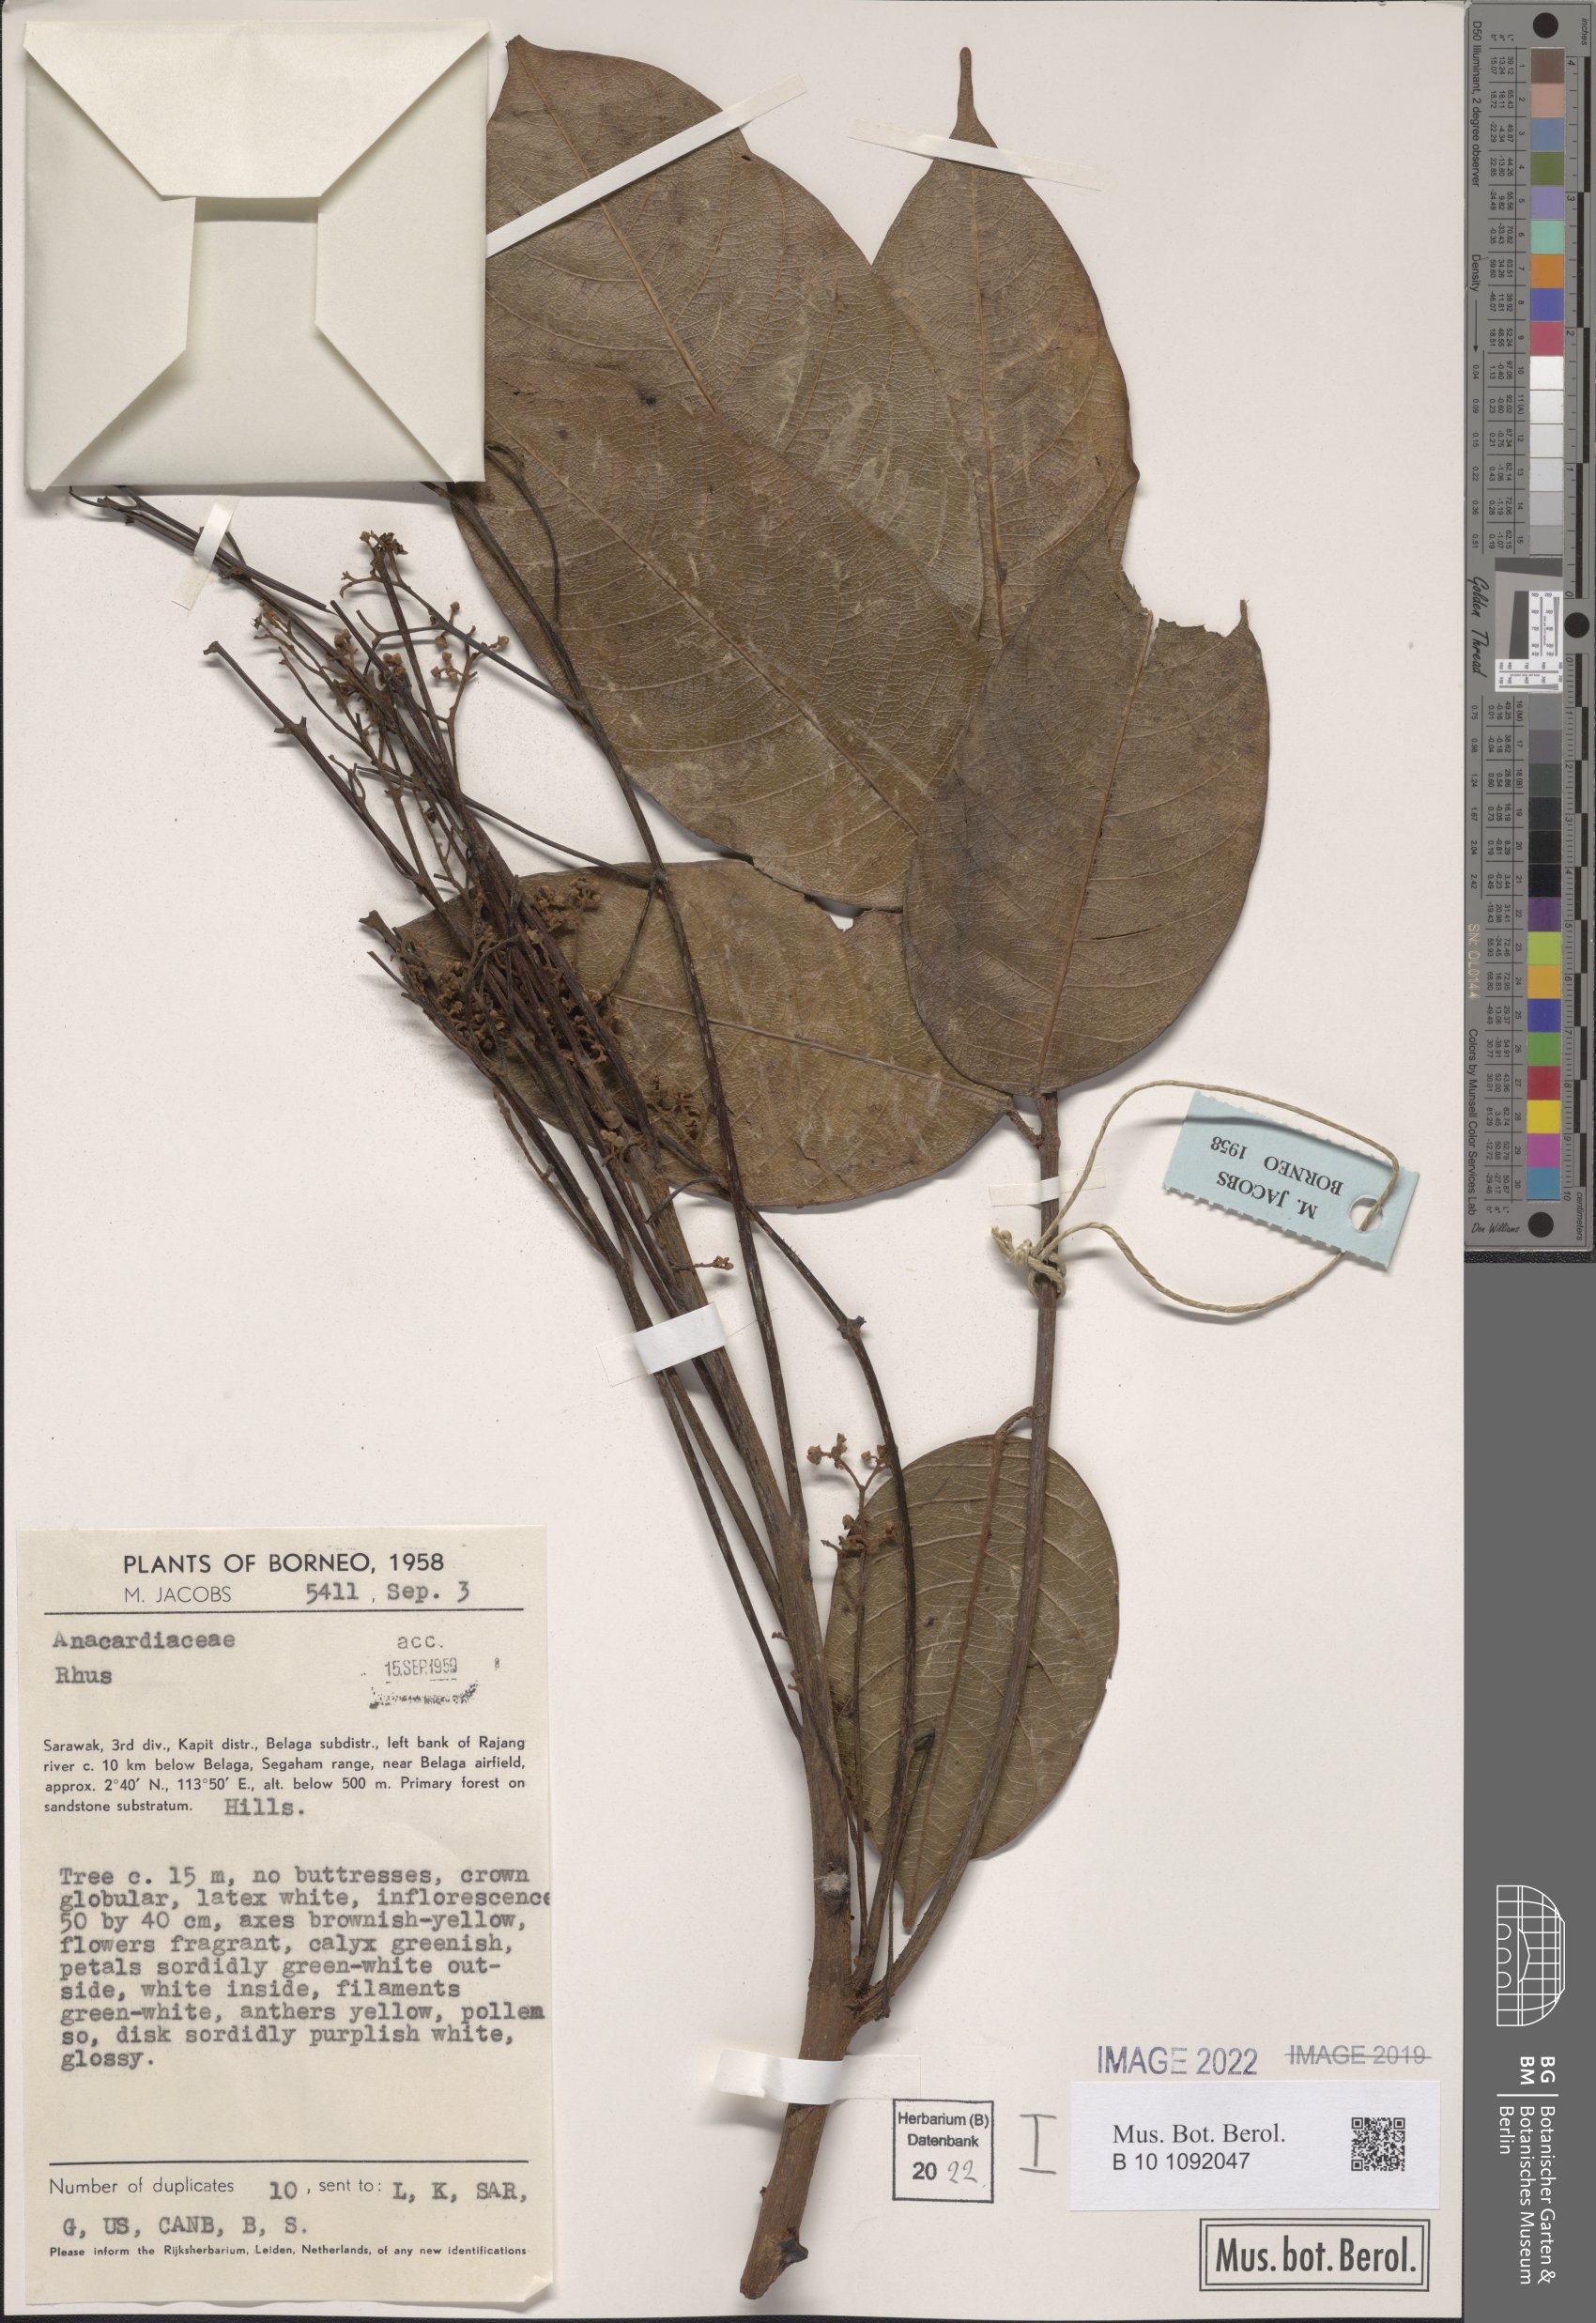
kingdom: Plantae
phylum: Tracheophyta
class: Magnoliopsida
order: Sapindales
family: Anacardiaceae
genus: Rhus
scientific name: Rhus
